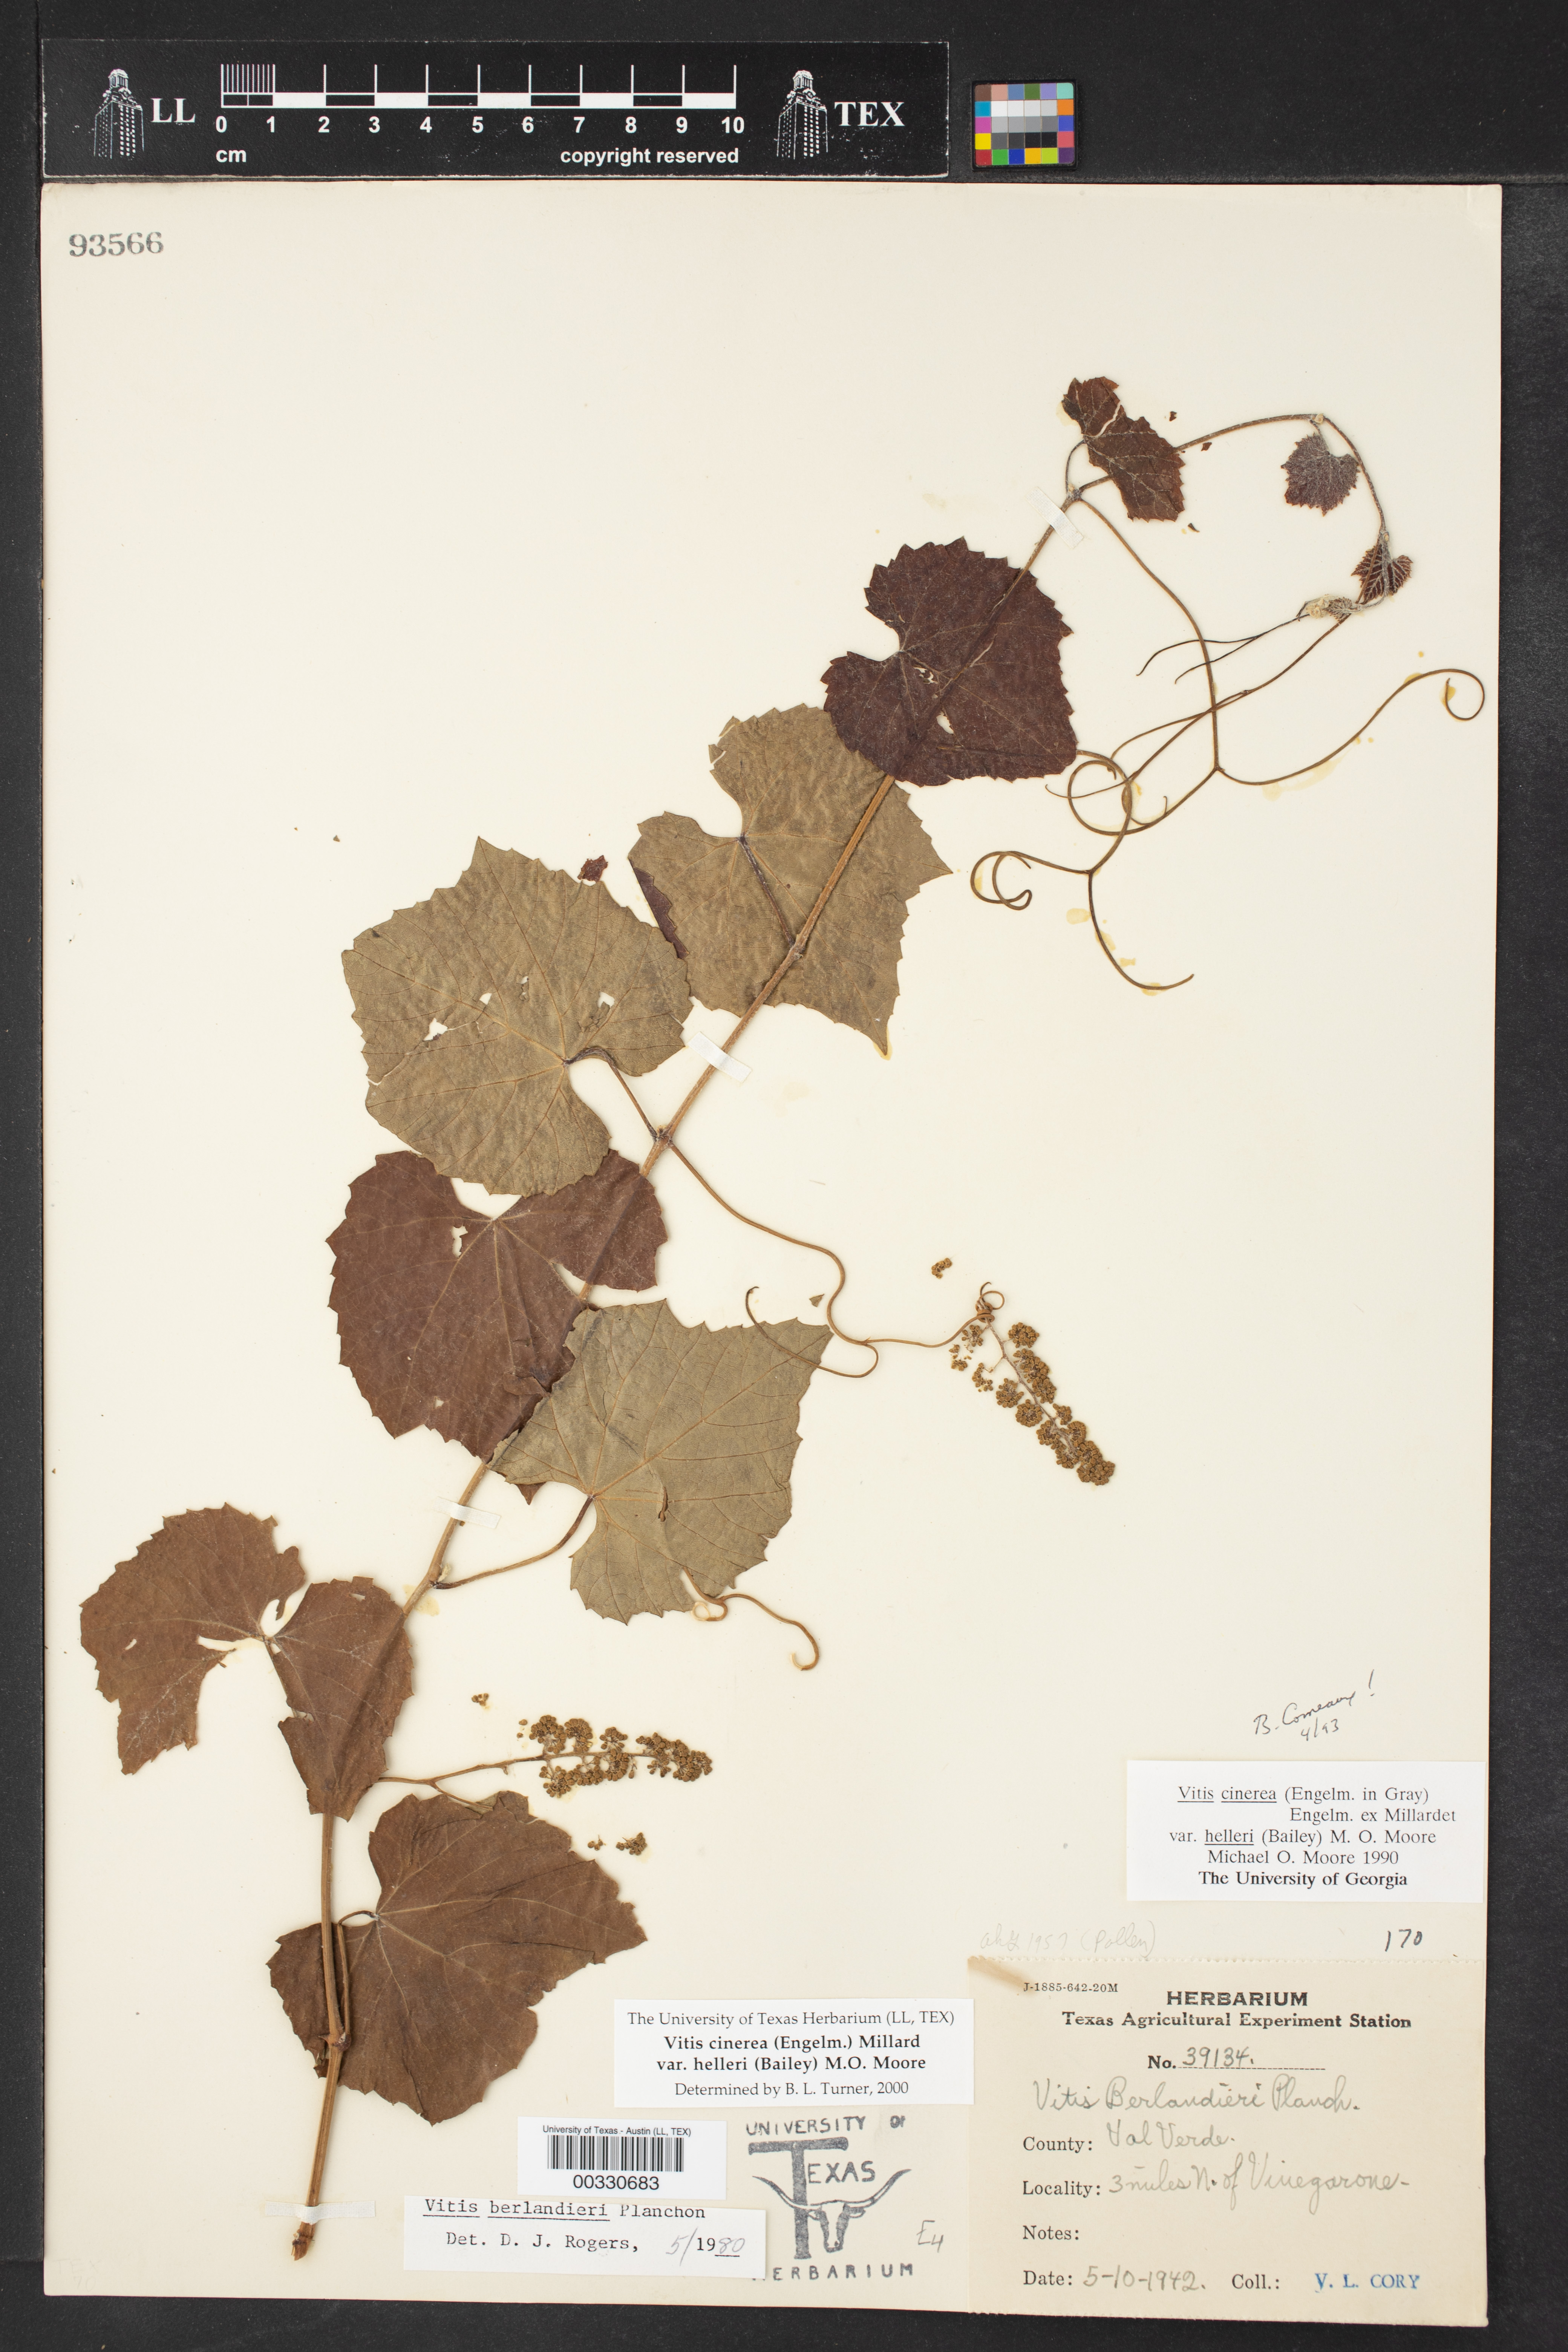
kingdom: Plantae
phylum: Tracheophyta
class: Magnoliopsida
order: Vitales
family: Vitaceae
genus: Vitis
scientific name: Vitis cinerea
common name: Ashy grape
